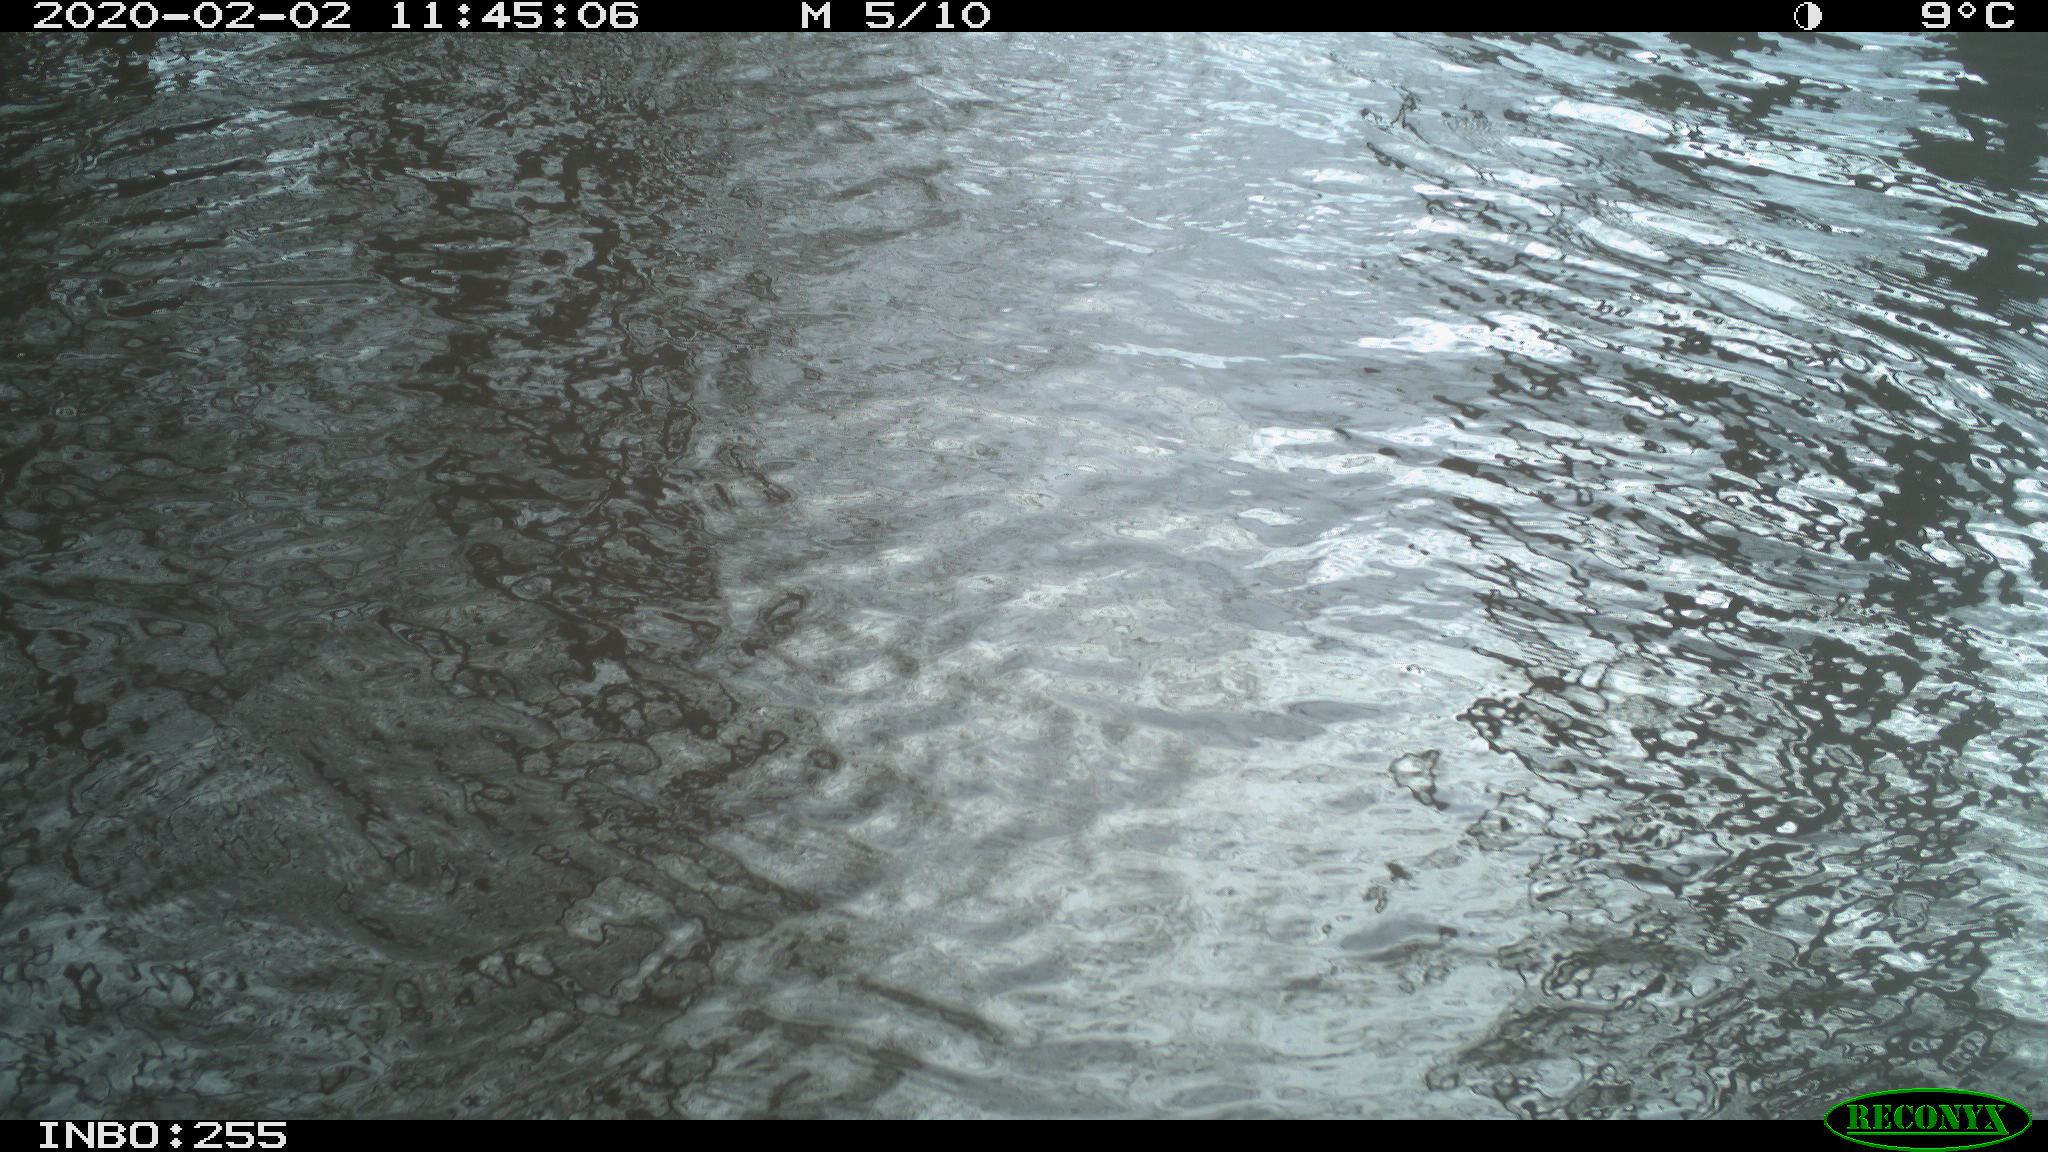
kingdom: Animalia
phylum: Chordata
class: Aves
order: Gruiformes
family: Rallidae
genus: Gallinula
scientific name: Gallinula chloropus
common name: Common moorhen
